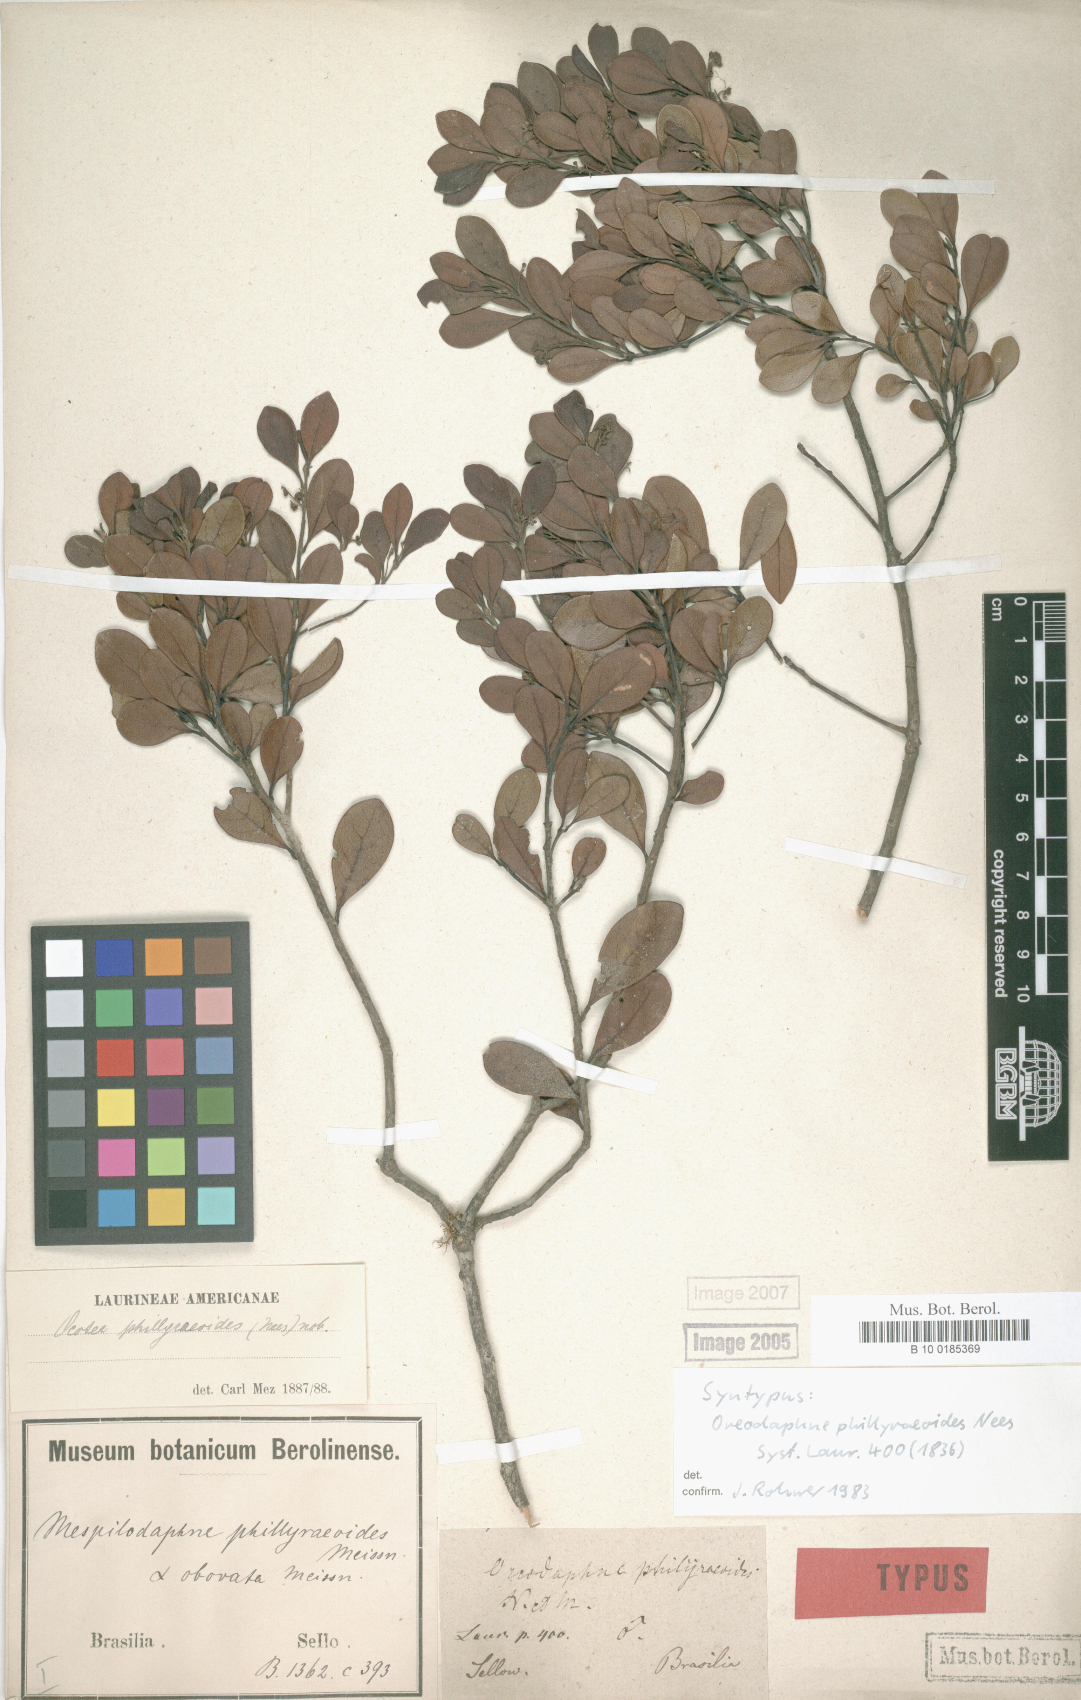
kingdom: Plantae
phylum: Tracheophyta
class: Magnoliopsida
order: Laurales
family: Lauraceae
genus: Mespilodaphne
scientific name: Mespilodaphne tristis
